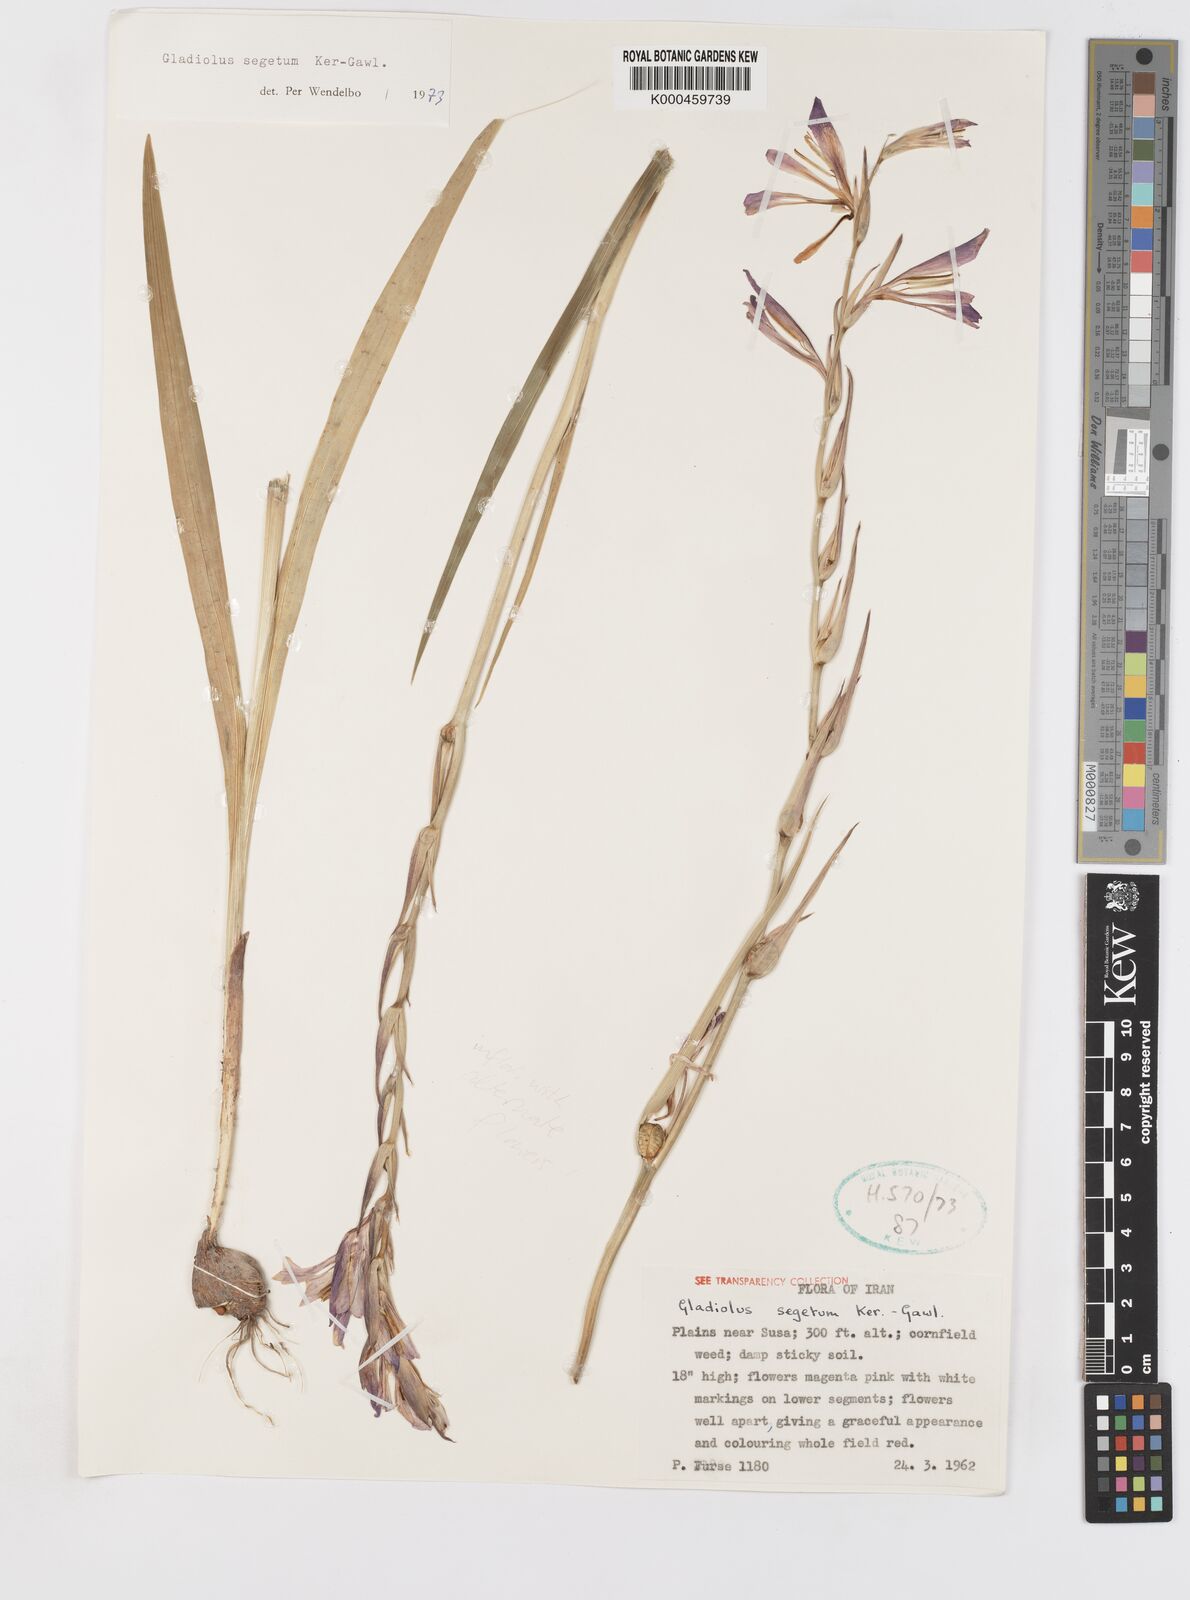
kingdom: Plantae
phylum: Tracheophyta
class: Liliopsida
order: Asparagales
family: Iridaceae
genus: Gladiolus
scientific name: Gladiolus italicus
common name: Field gladiolus
